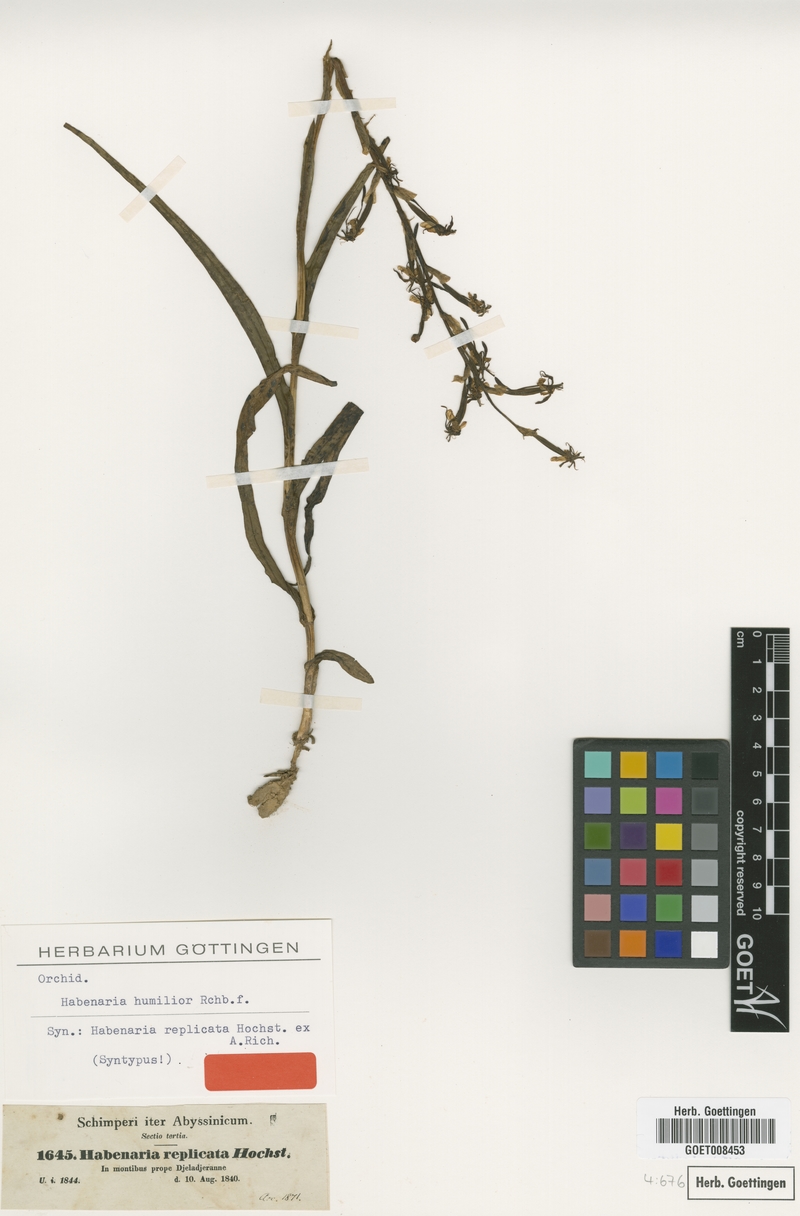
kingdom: Plantae
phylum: Tracheophyta
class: Liliopsida
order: Asparagales
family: Orchidaceae
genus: Habenaria
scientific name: Habenaria humilior
